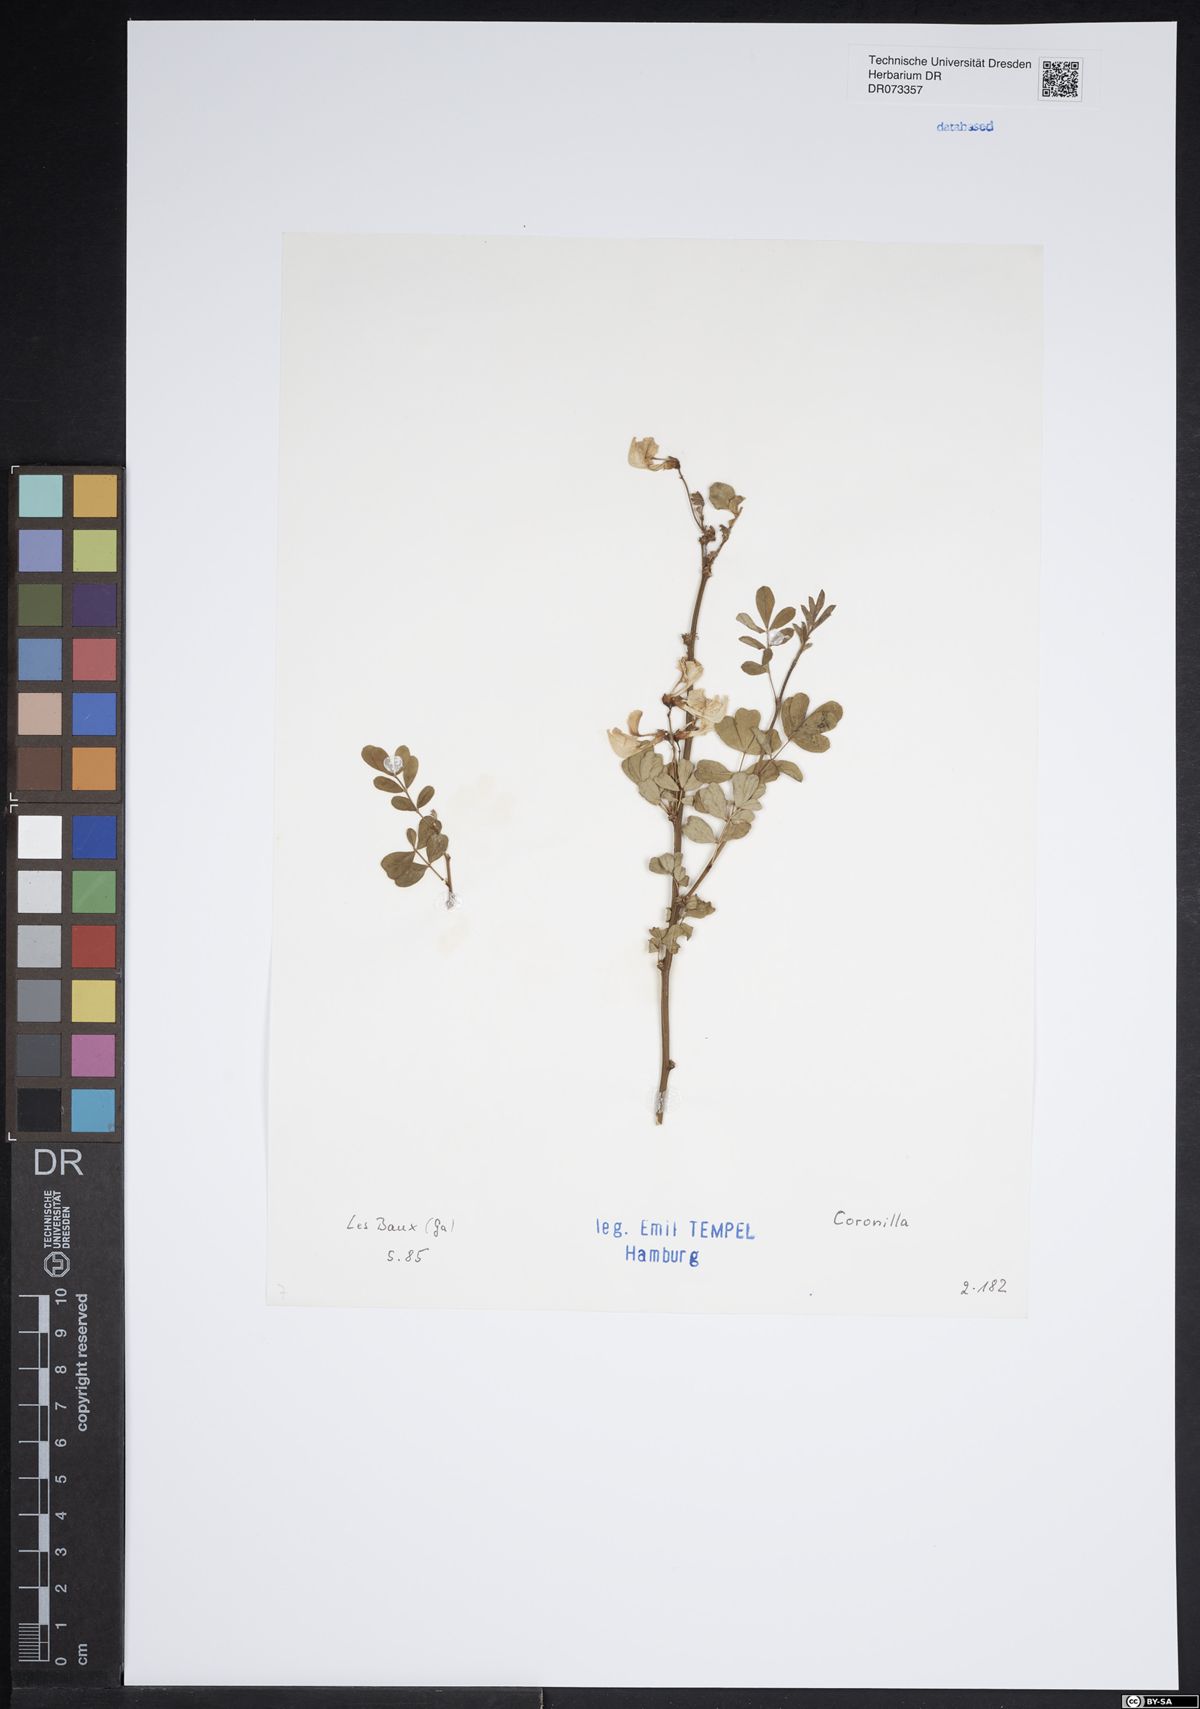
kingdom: Plantae
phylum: Tracheophyta
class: Magnoliopsida
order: Fabales
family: Fabaceae
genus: Coronilla
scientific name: Coronilla
